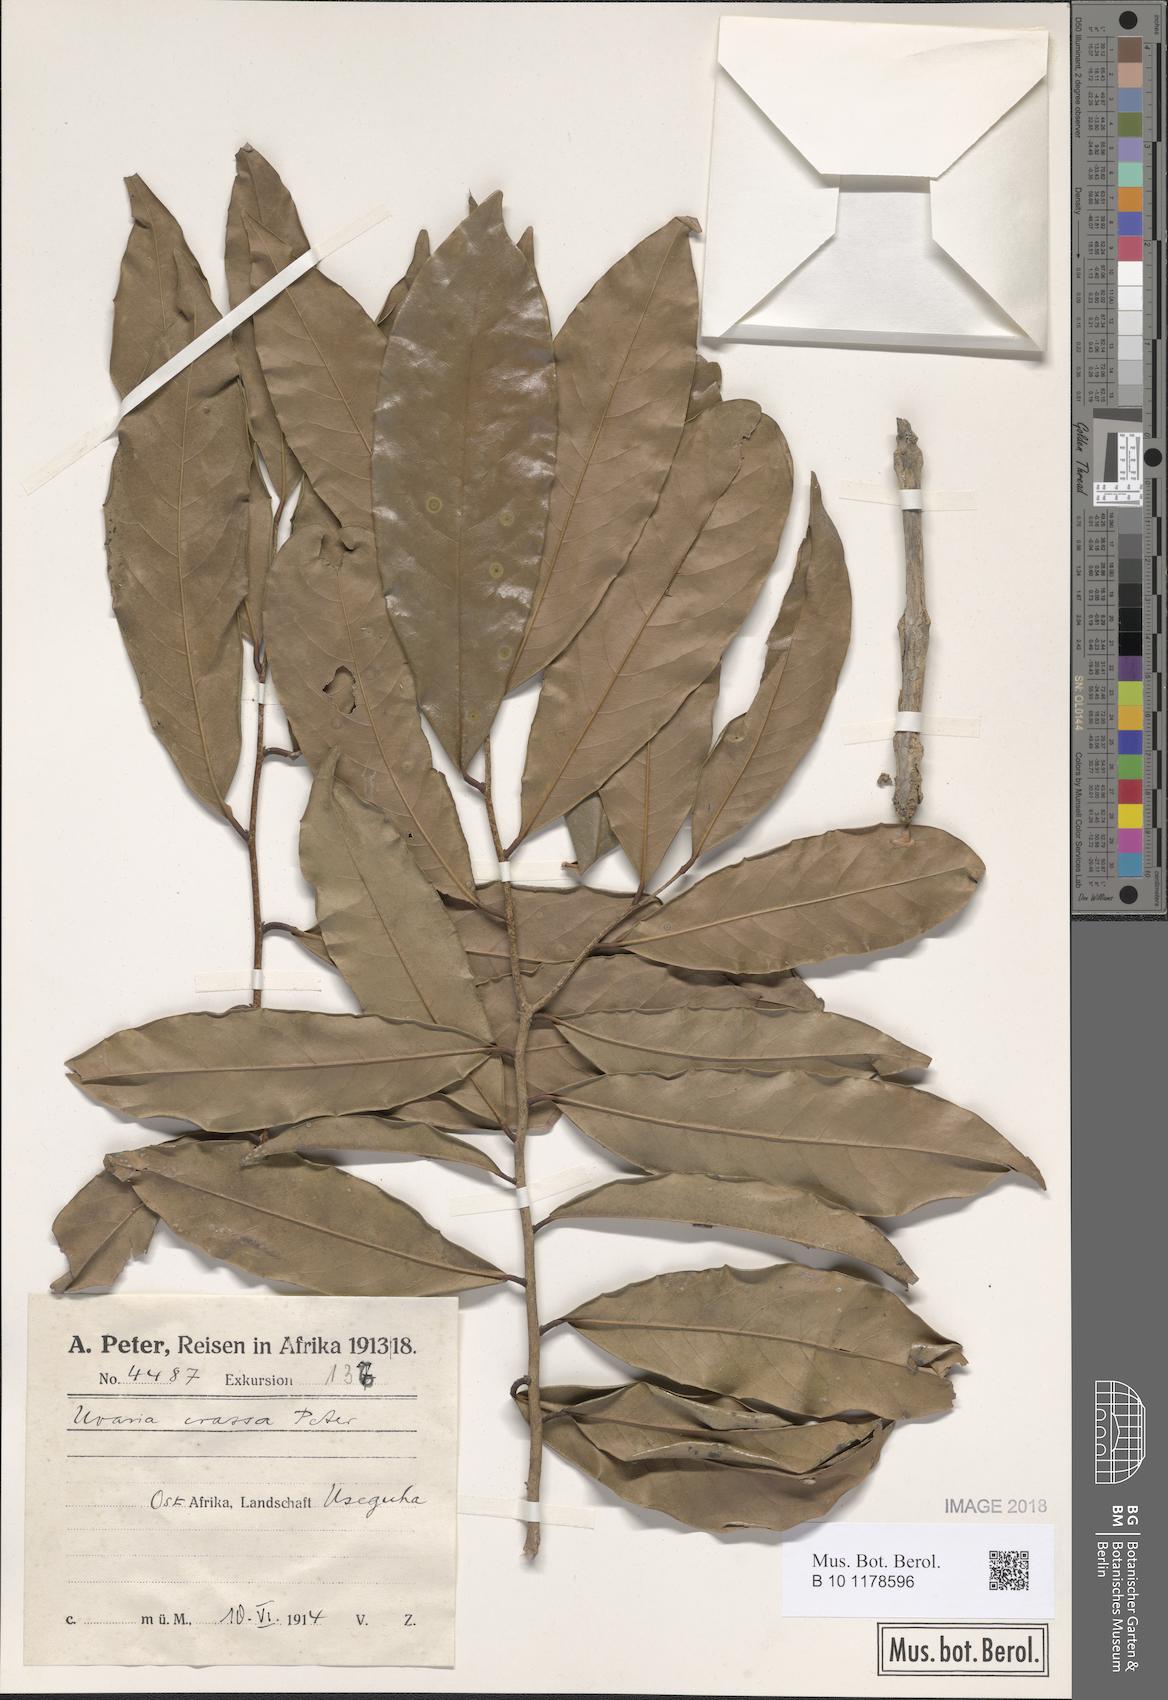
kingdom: Plantae
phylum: Tracheophyta
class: Magnoliopsida
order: Magnoliales
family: Annonaceae
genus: Uvariodendron
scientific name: Uvariodendron kirkii
